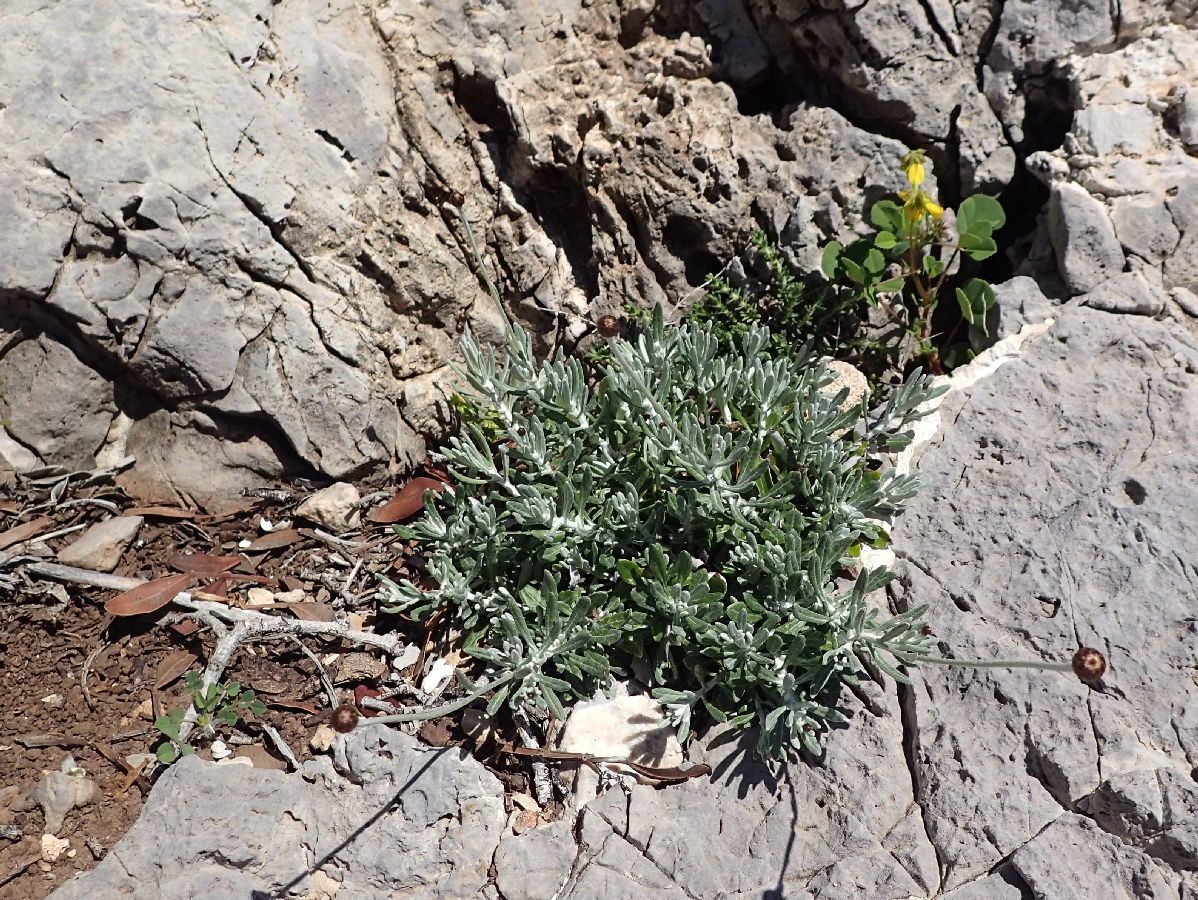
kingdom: Plantae
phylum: Tracheophyta
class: Magnoliopsida
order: Asterales
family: Asteraceae
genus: Phagnalon
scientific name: Phagnalon graecum
